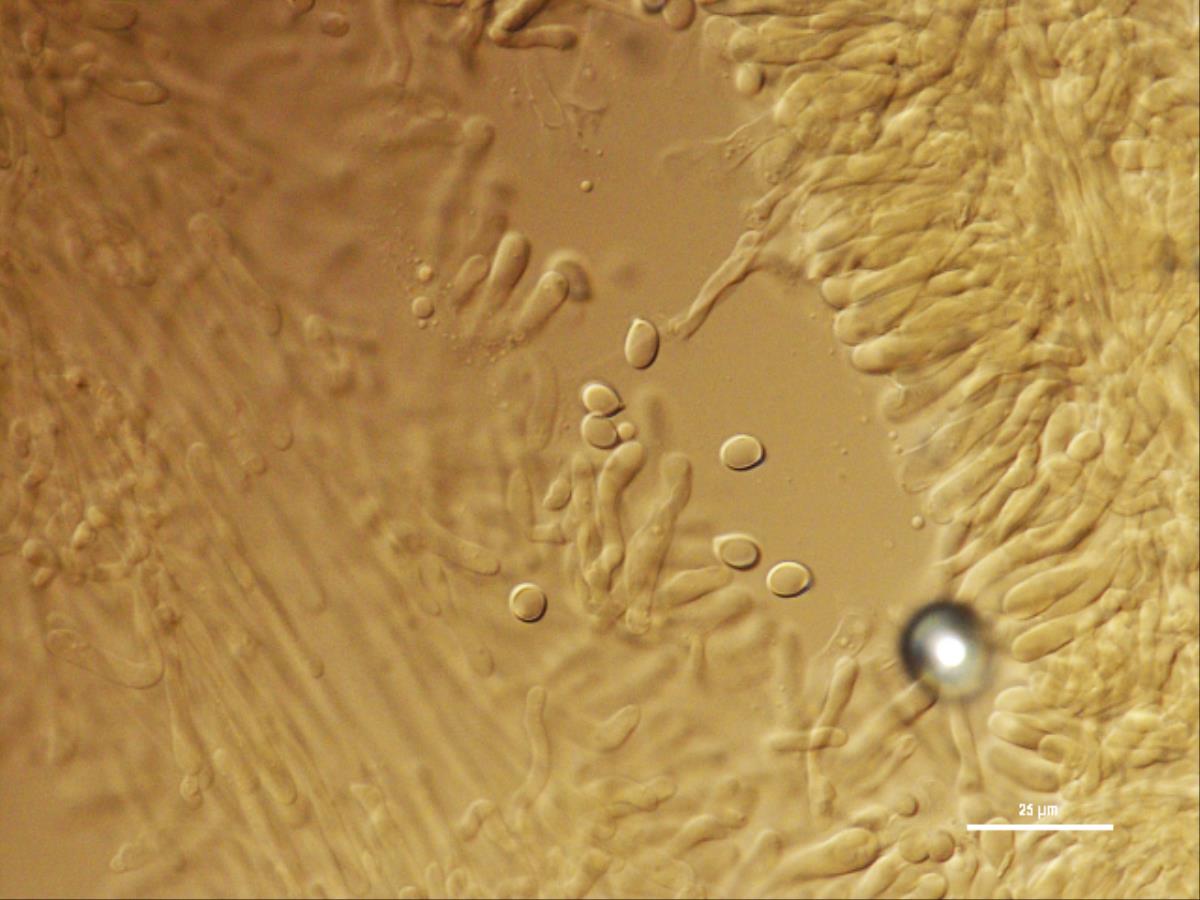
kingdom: Fungi
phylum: Basidiomycota
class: Agaricomycetes
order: Agaricales
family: Hygrophoraceae
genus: Gliophorus
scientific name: Gliophorus
